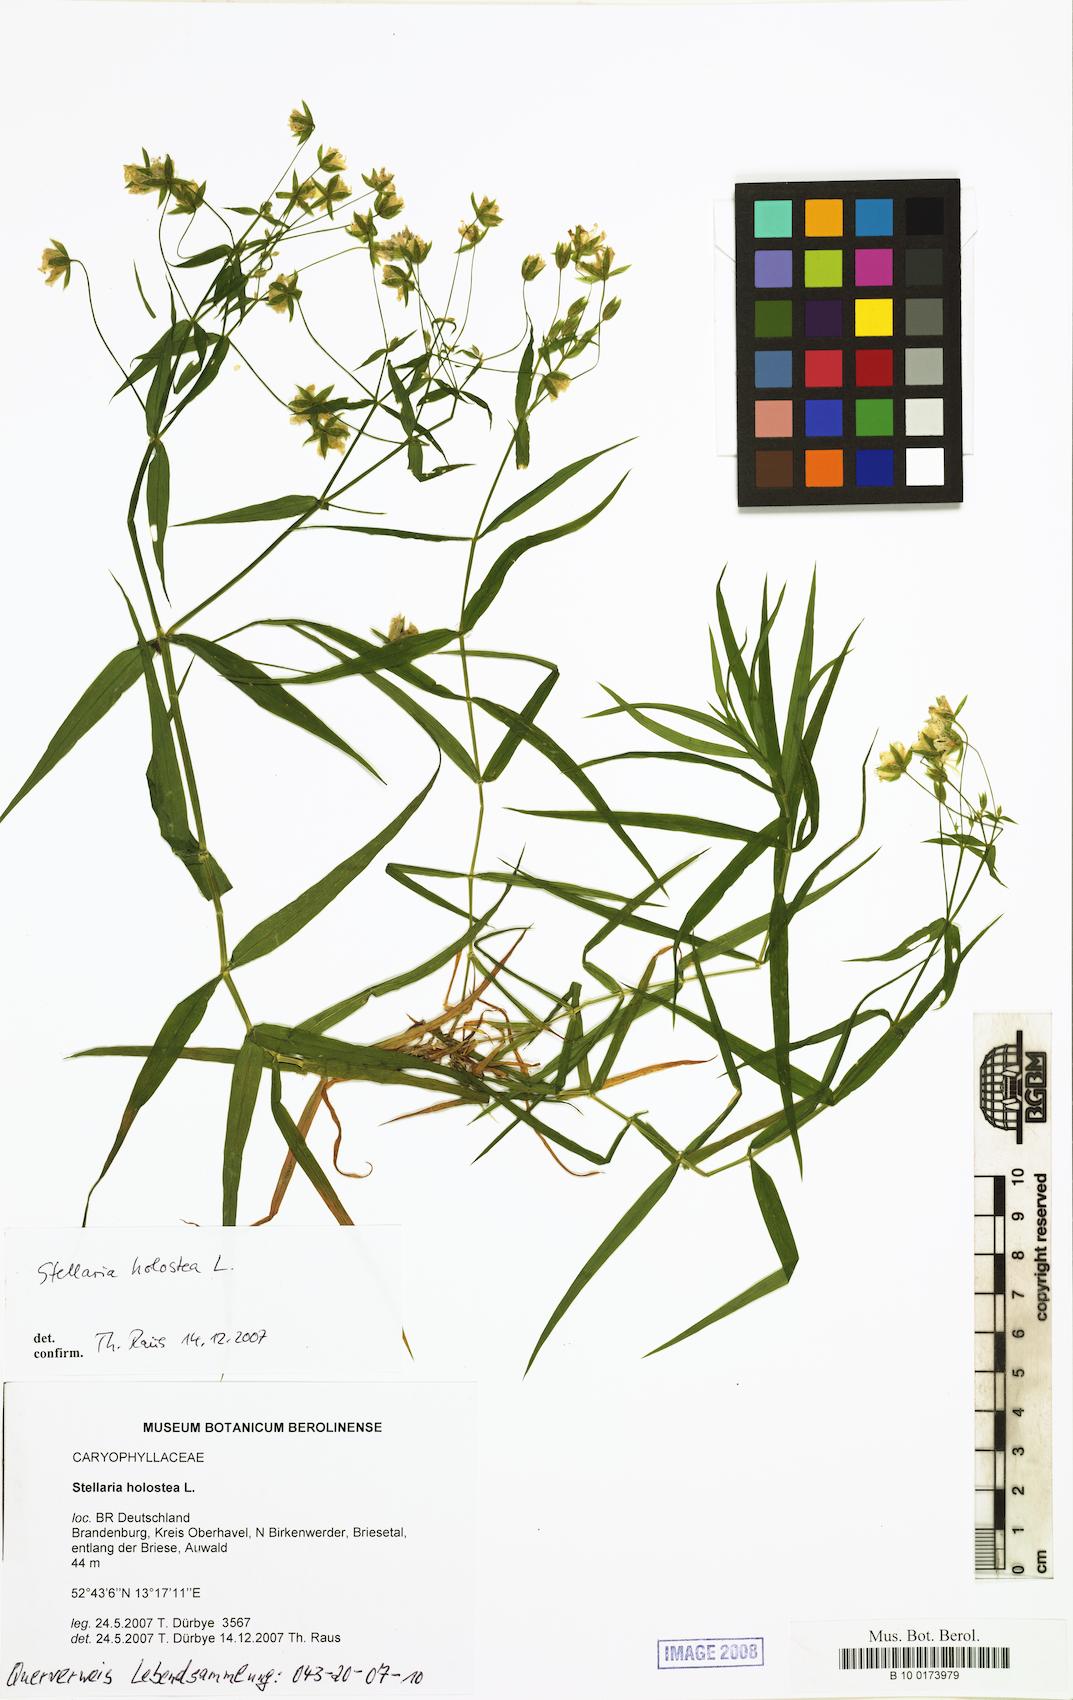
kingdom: Plantae
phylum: Tracheophyta
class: Magnoliopsida
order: Caryophyllales
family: Caryophyllaceae
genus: Rabelera
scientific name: Rabelera holostea
